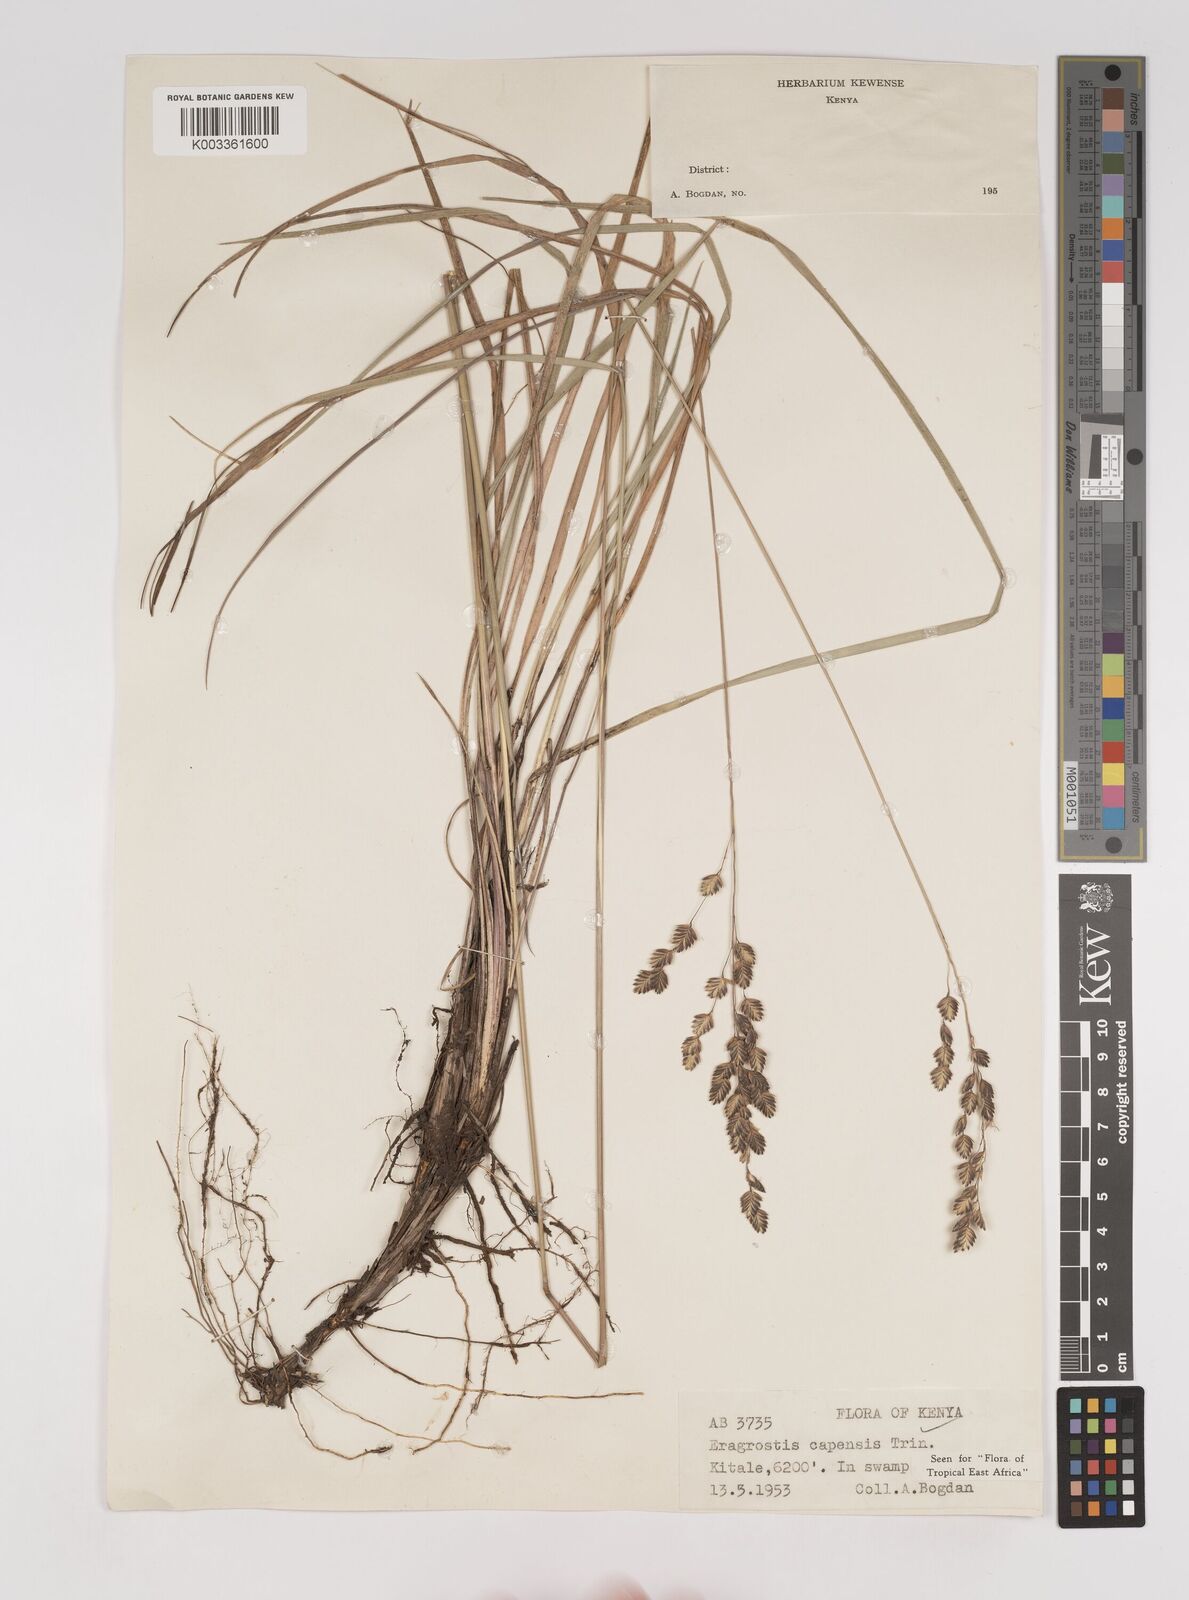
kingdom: Plantae
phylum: Tracheophyta
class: Liliopsida
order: Poales
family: Poaceae
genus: Eragrostis
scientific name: Eragrostis capensis
